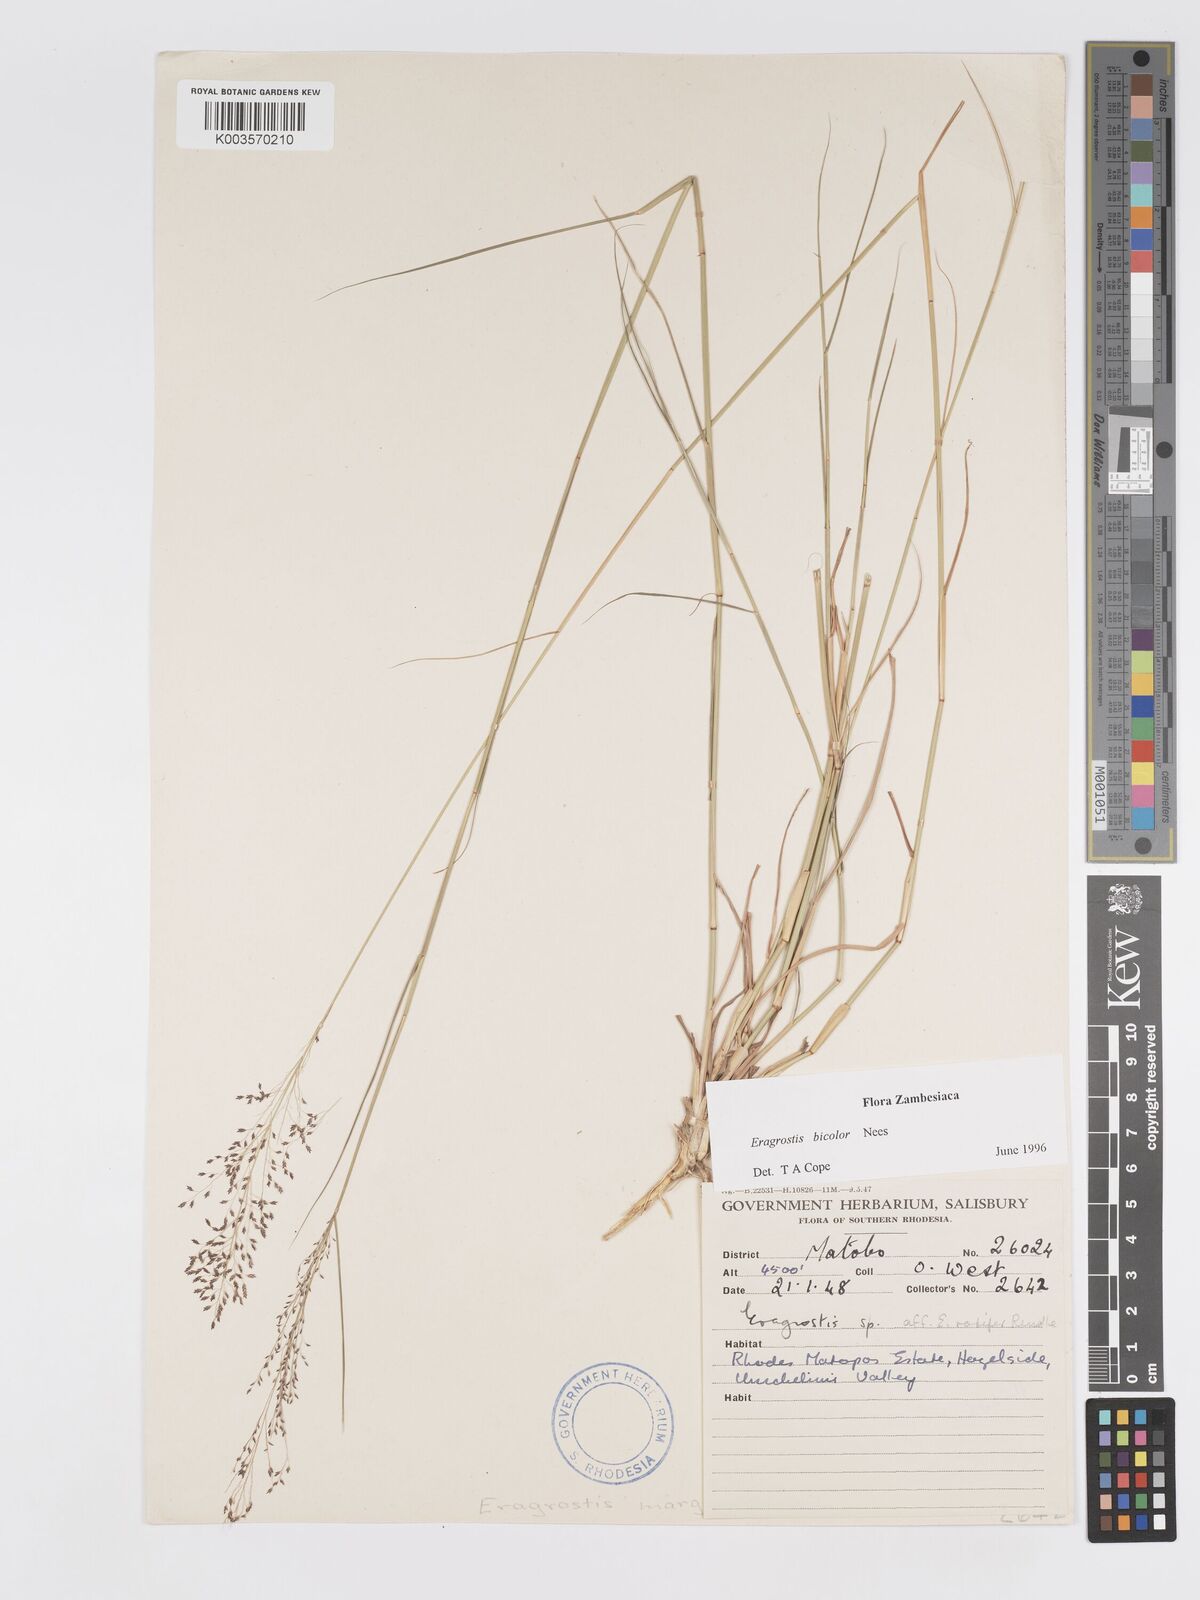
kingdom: Plantae
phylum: Tracheophyta
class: Liliopsida
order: Poales
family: Poaceae
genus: Eragrostis
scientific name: Eragrostis bicolor
